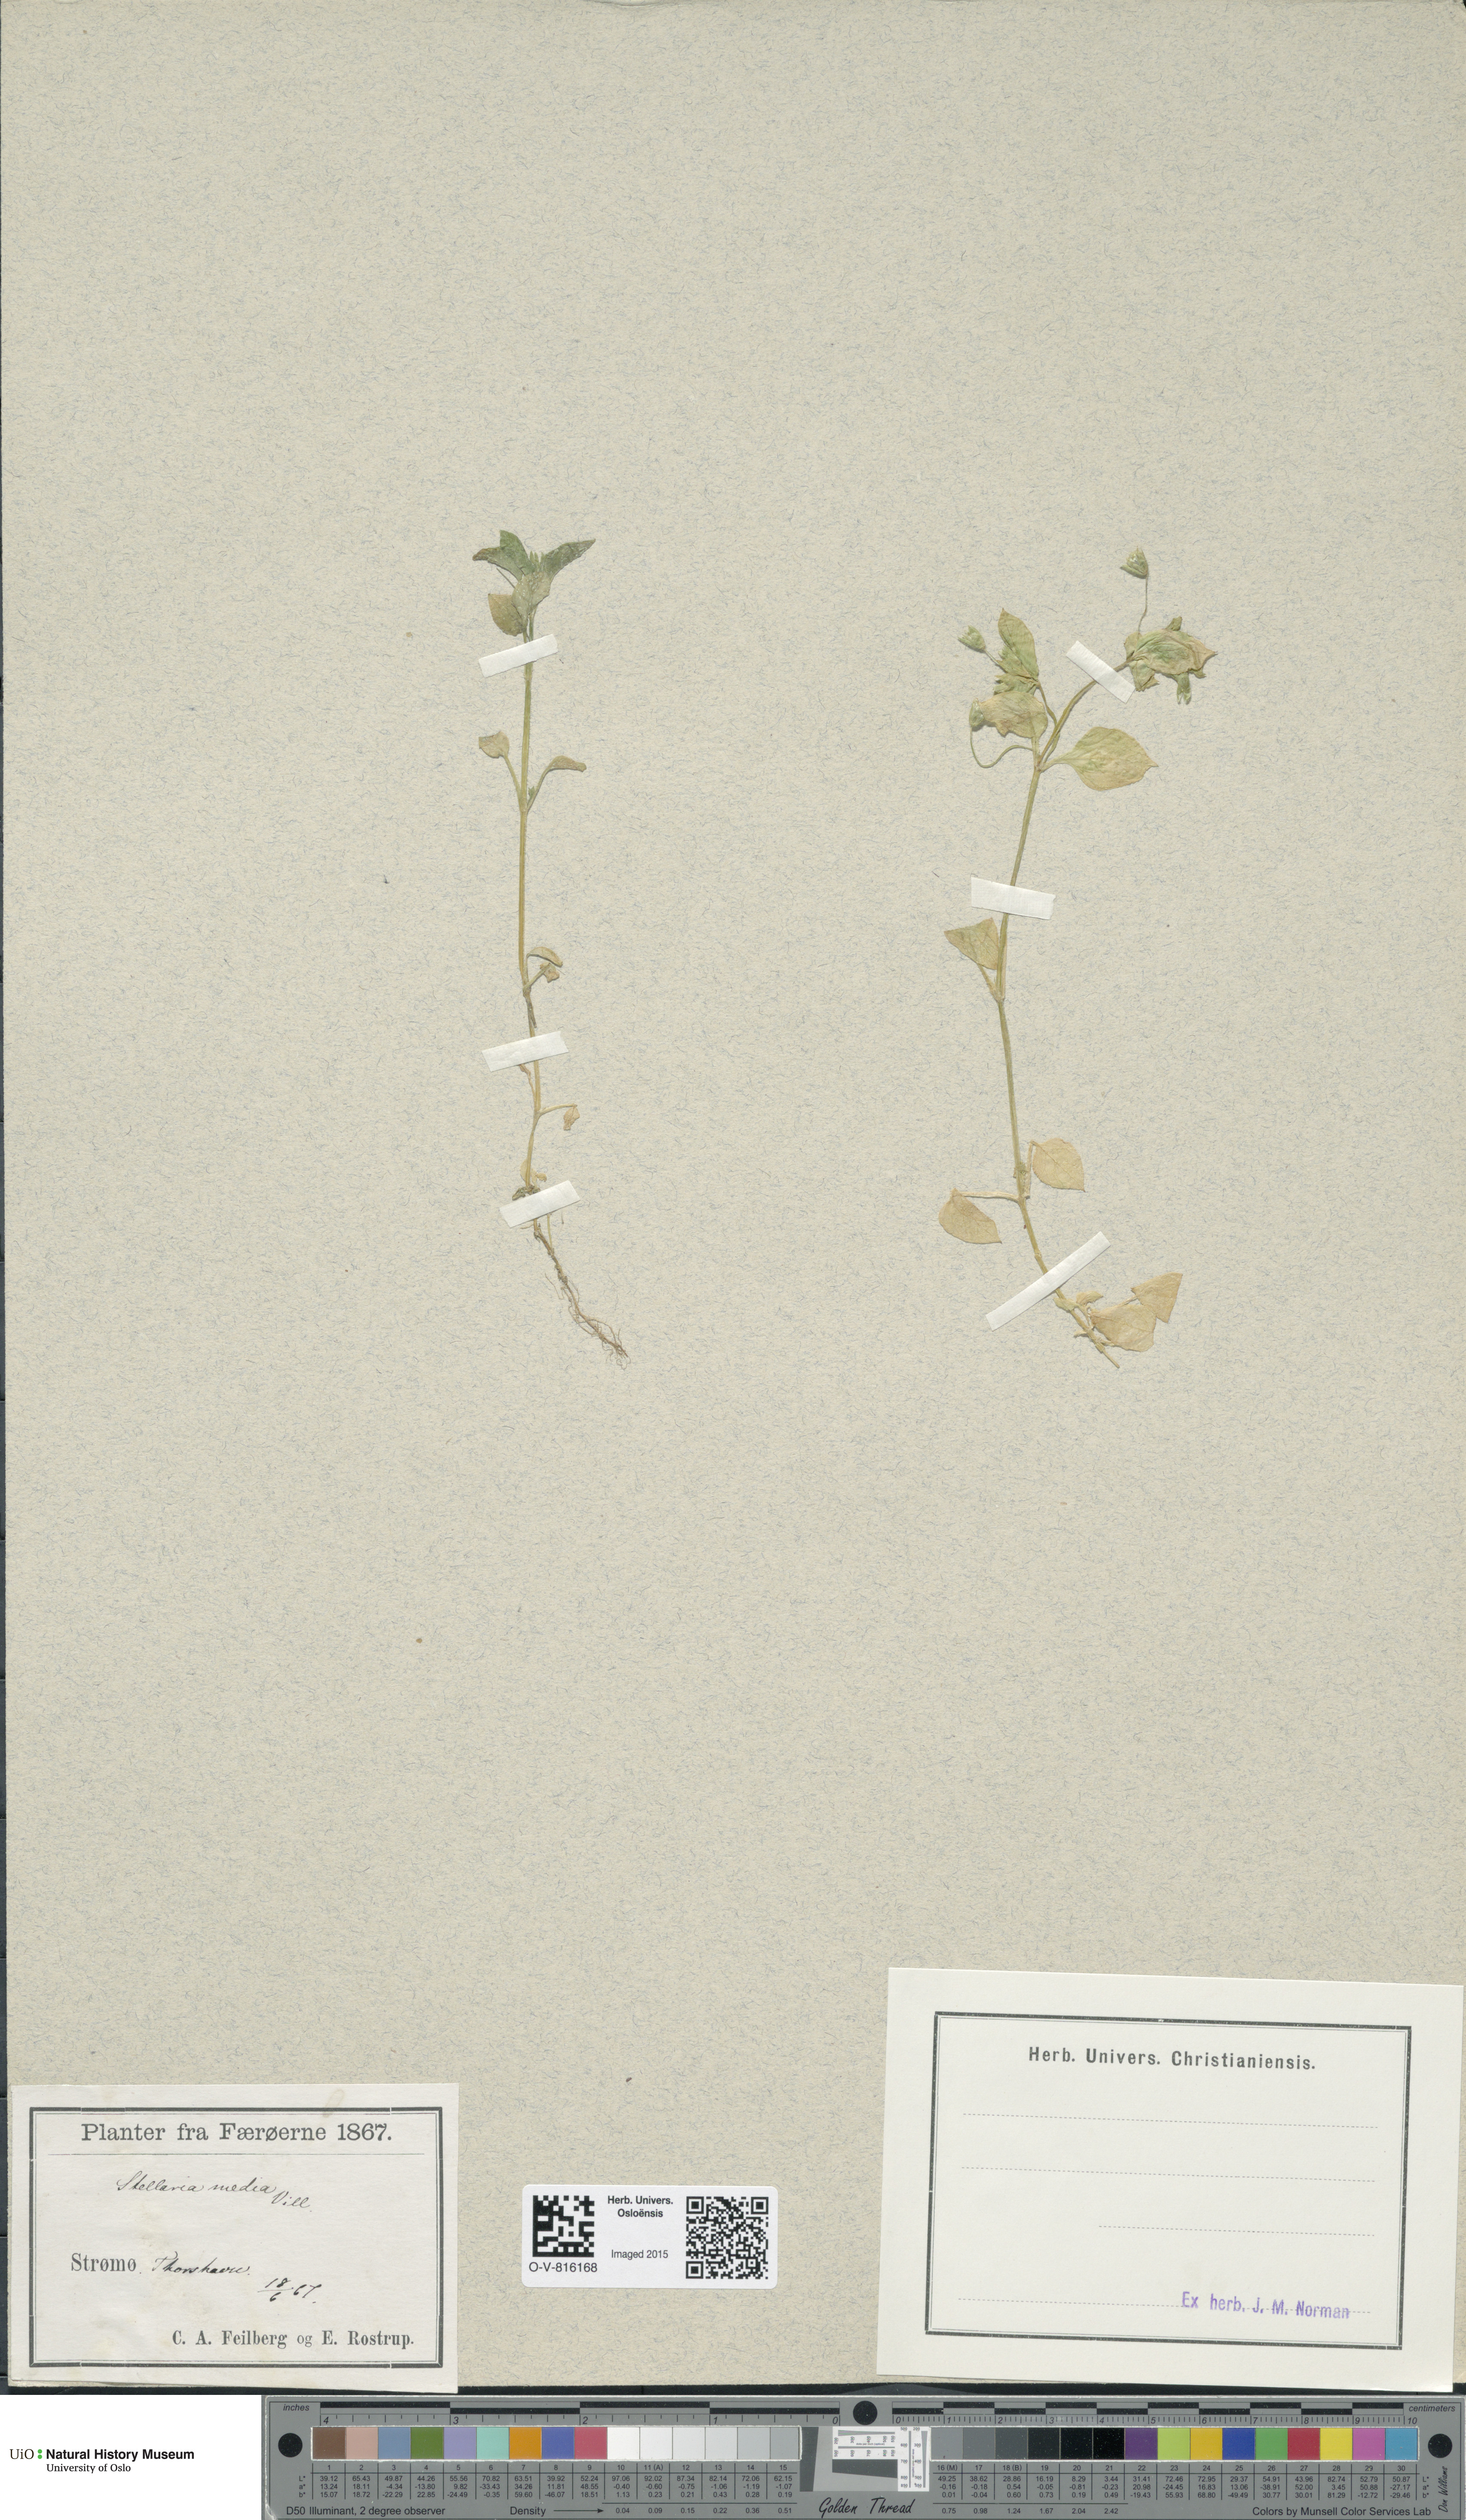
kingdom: Plantae
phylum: Tracheophyta
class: Magnoliopsida
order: Caryophyllales
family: Caryophyllaceae
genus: Stellaria
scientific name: Stellaria media
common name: Common chickweed
